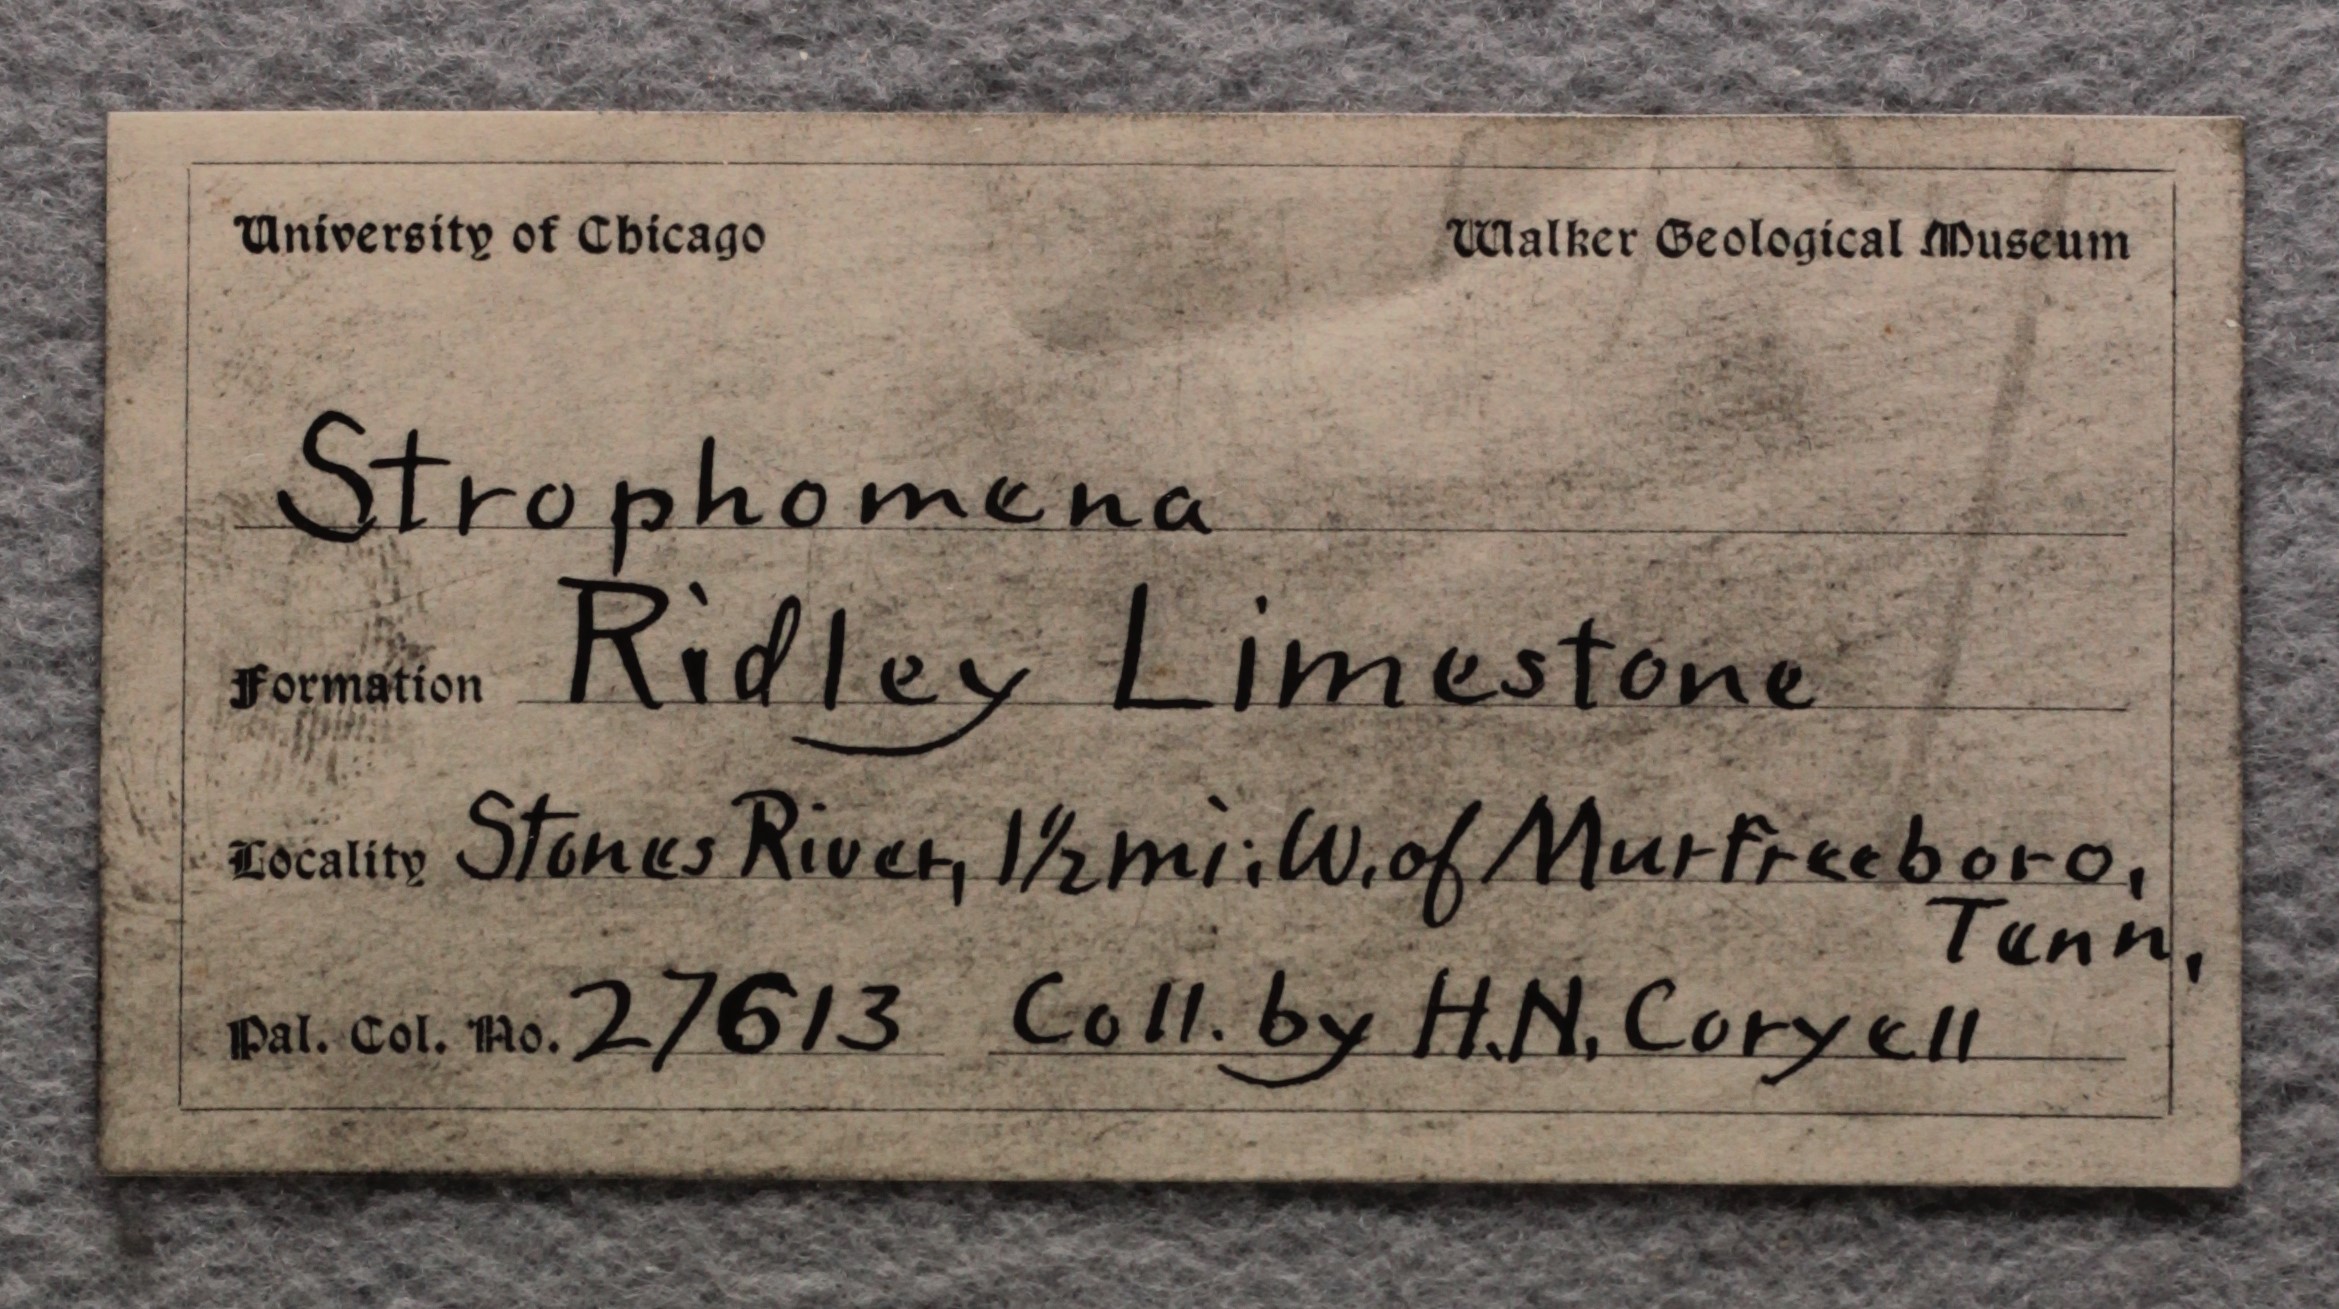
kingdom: Animalia
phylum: Brachiopoda
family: Strophomenidae
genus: Strophomena
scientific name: Strophomena
